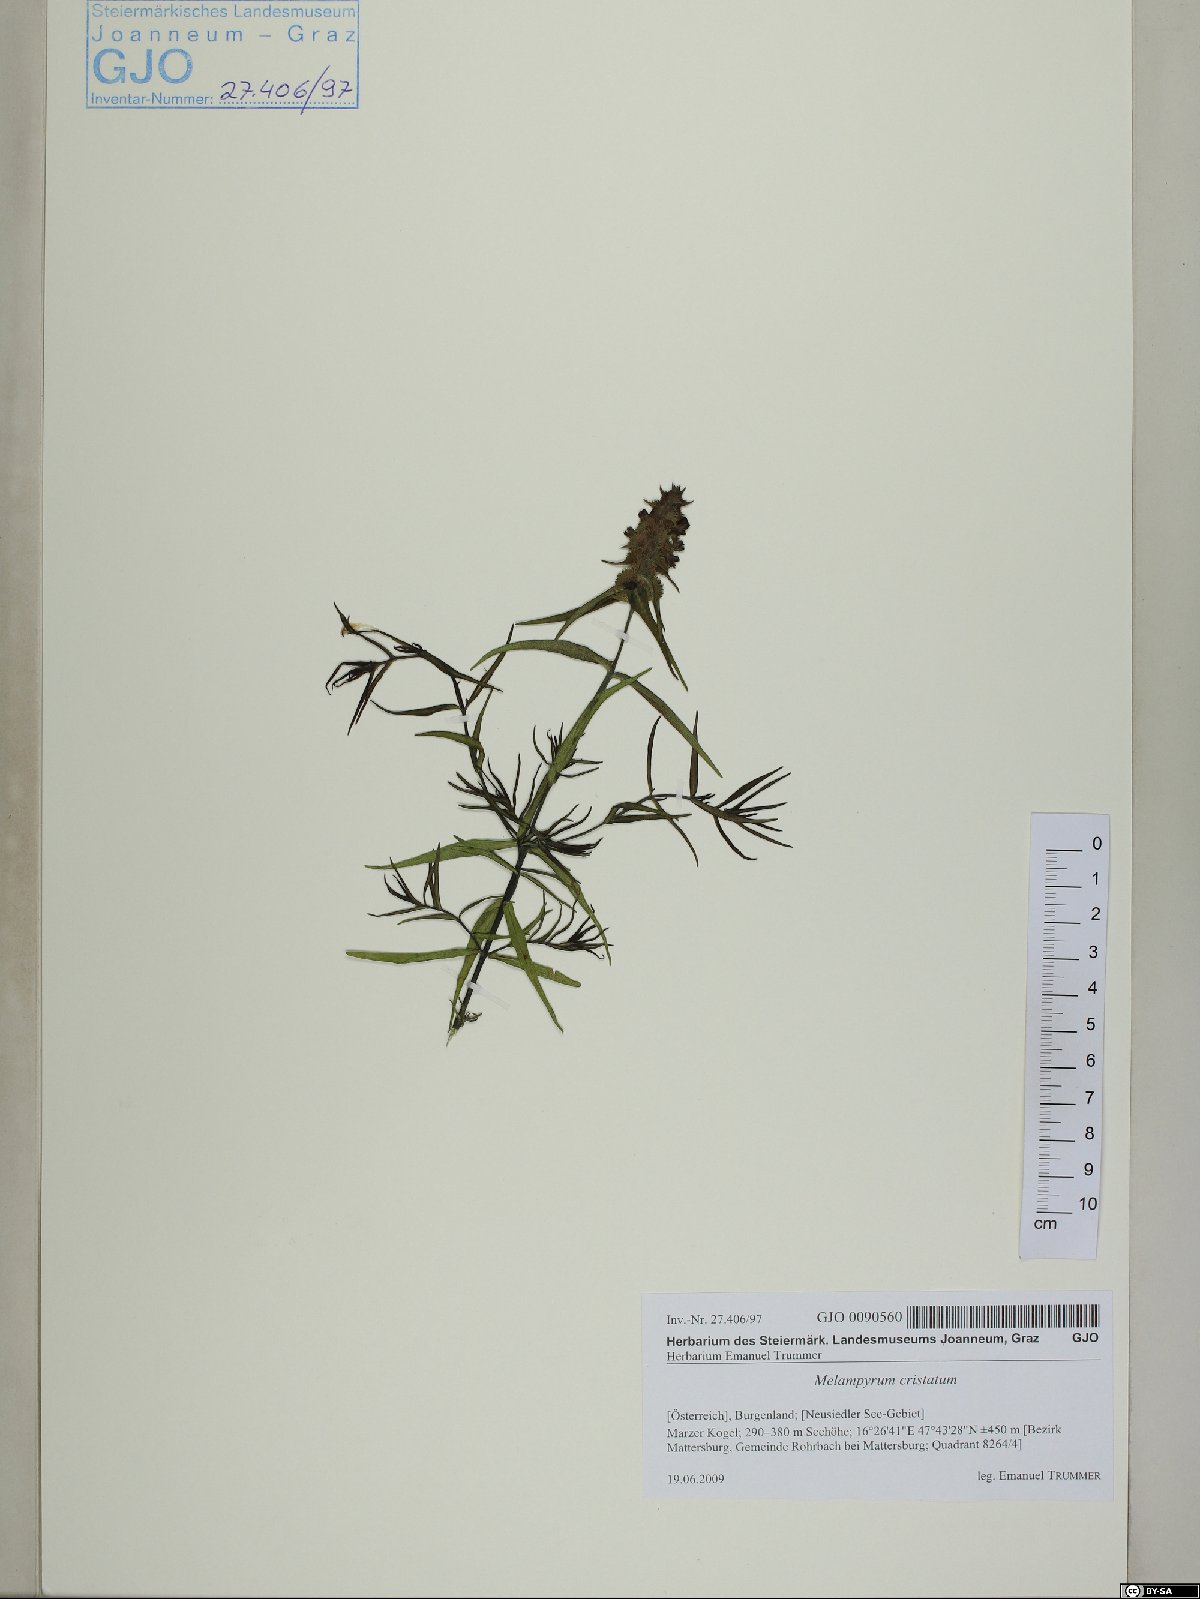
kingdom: Plantae
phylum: Tracheophyta
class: Magnoliopsida
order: Lamiales
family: Orobanchaceae
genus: Melampyrum
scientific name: Melampyrum cristatum
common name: Crested cow-wheat
